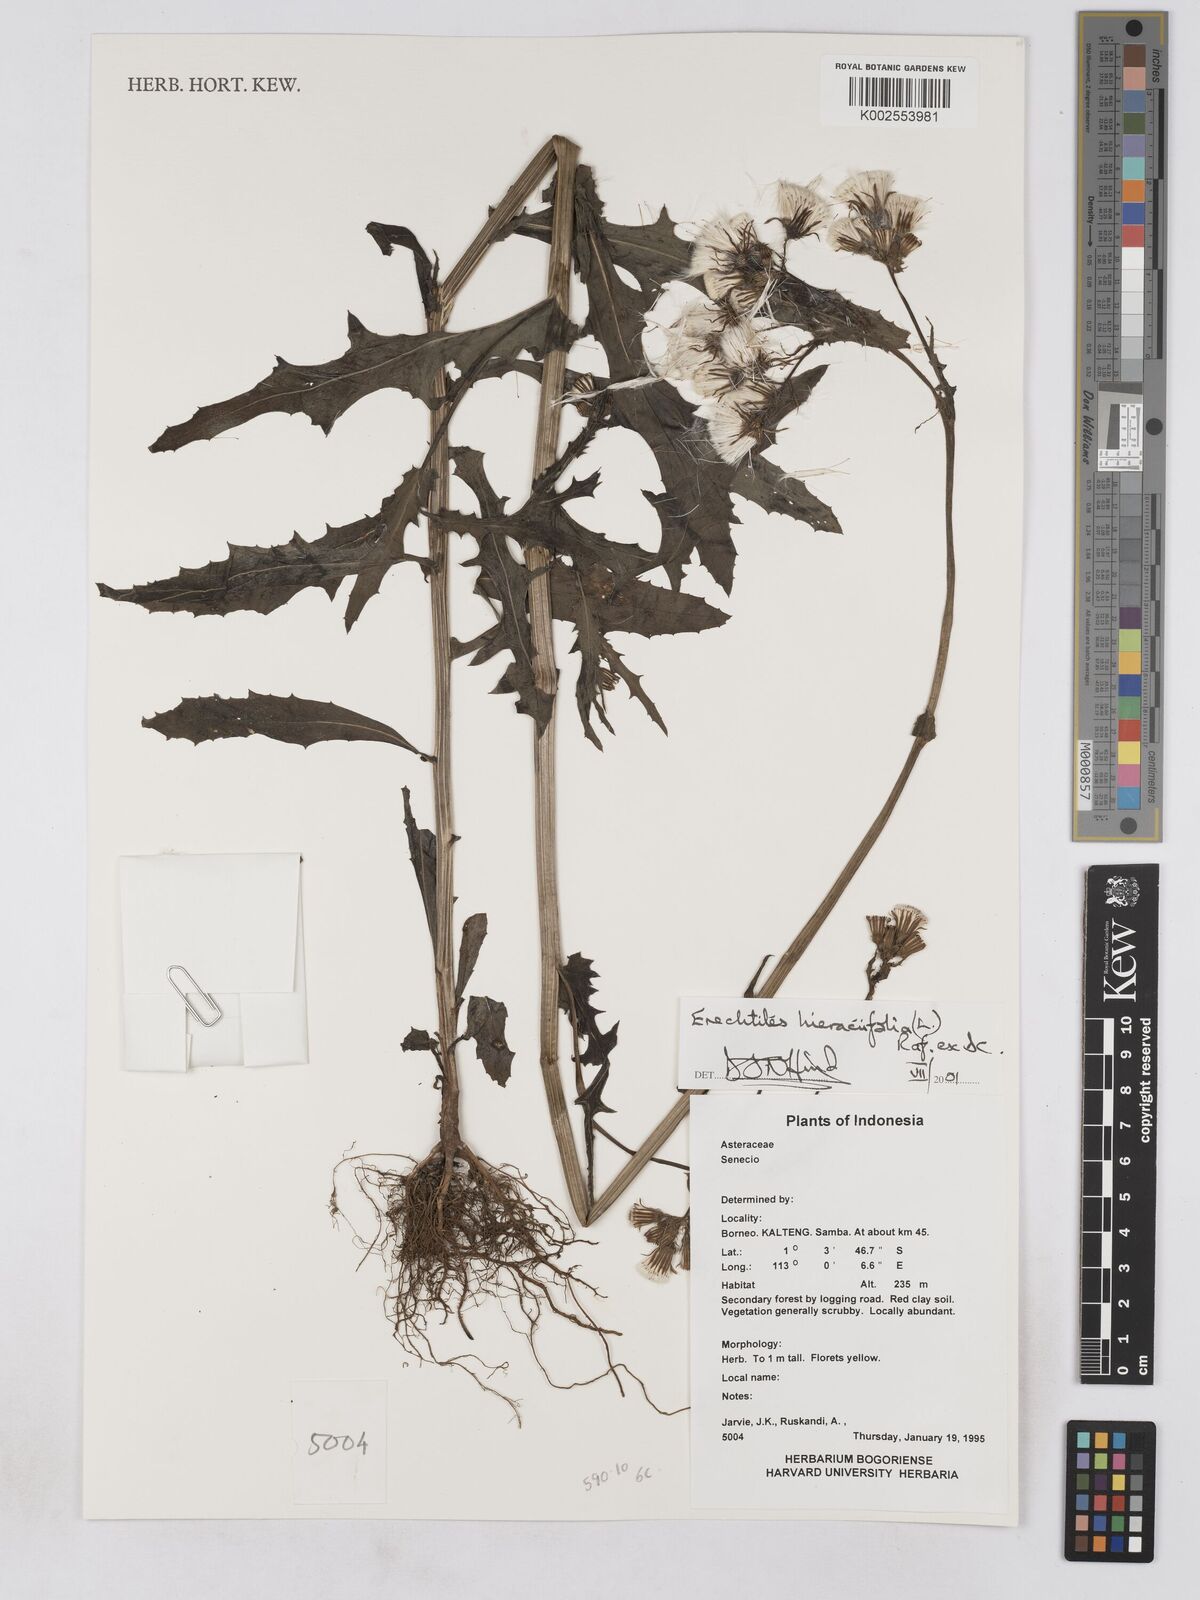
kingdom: Plantae
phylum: Tracheophyta
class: Magnoliopsida
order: Asterales
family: Asteraceae
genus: Erechtites
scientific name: Erechtites hieraciifolius
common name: American burnweed
